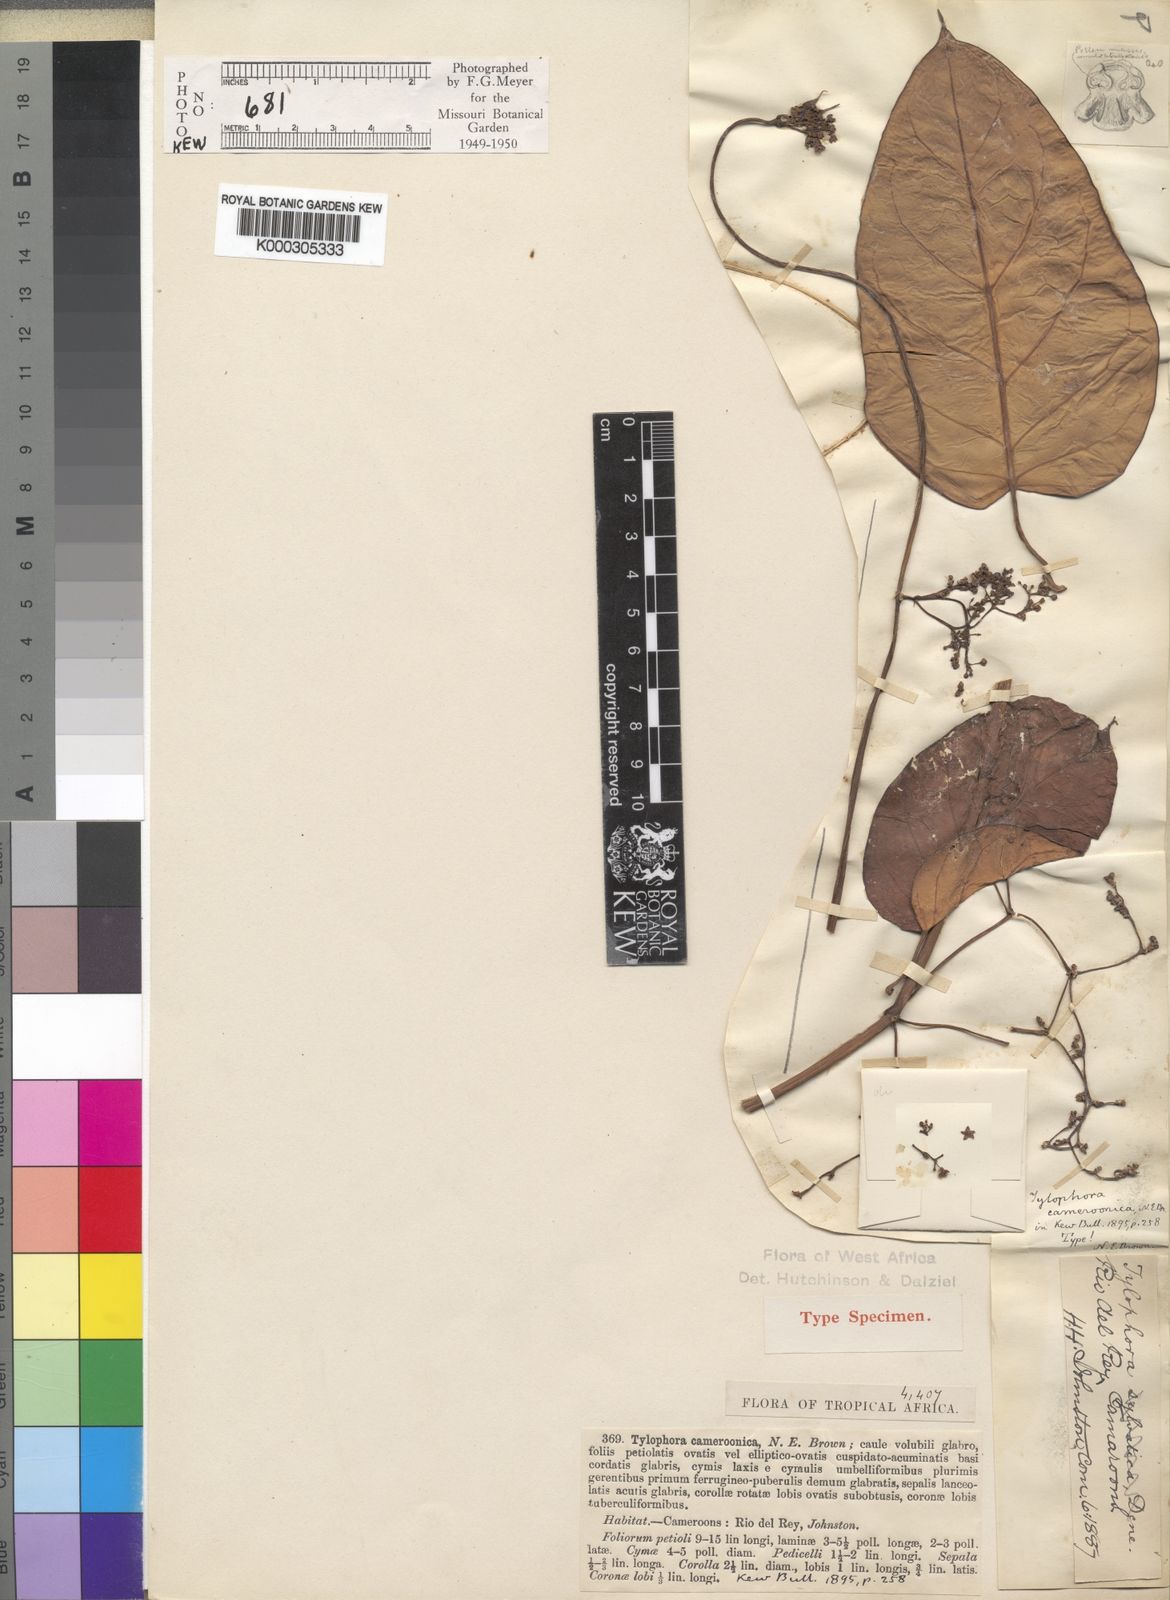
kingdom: Plantae
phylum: Tracheophyta
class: Magnoliopsida
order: Gentianales
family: Apocynaceae
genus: Vincetoxicum
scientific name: Vincetoxicum cameroonicum
